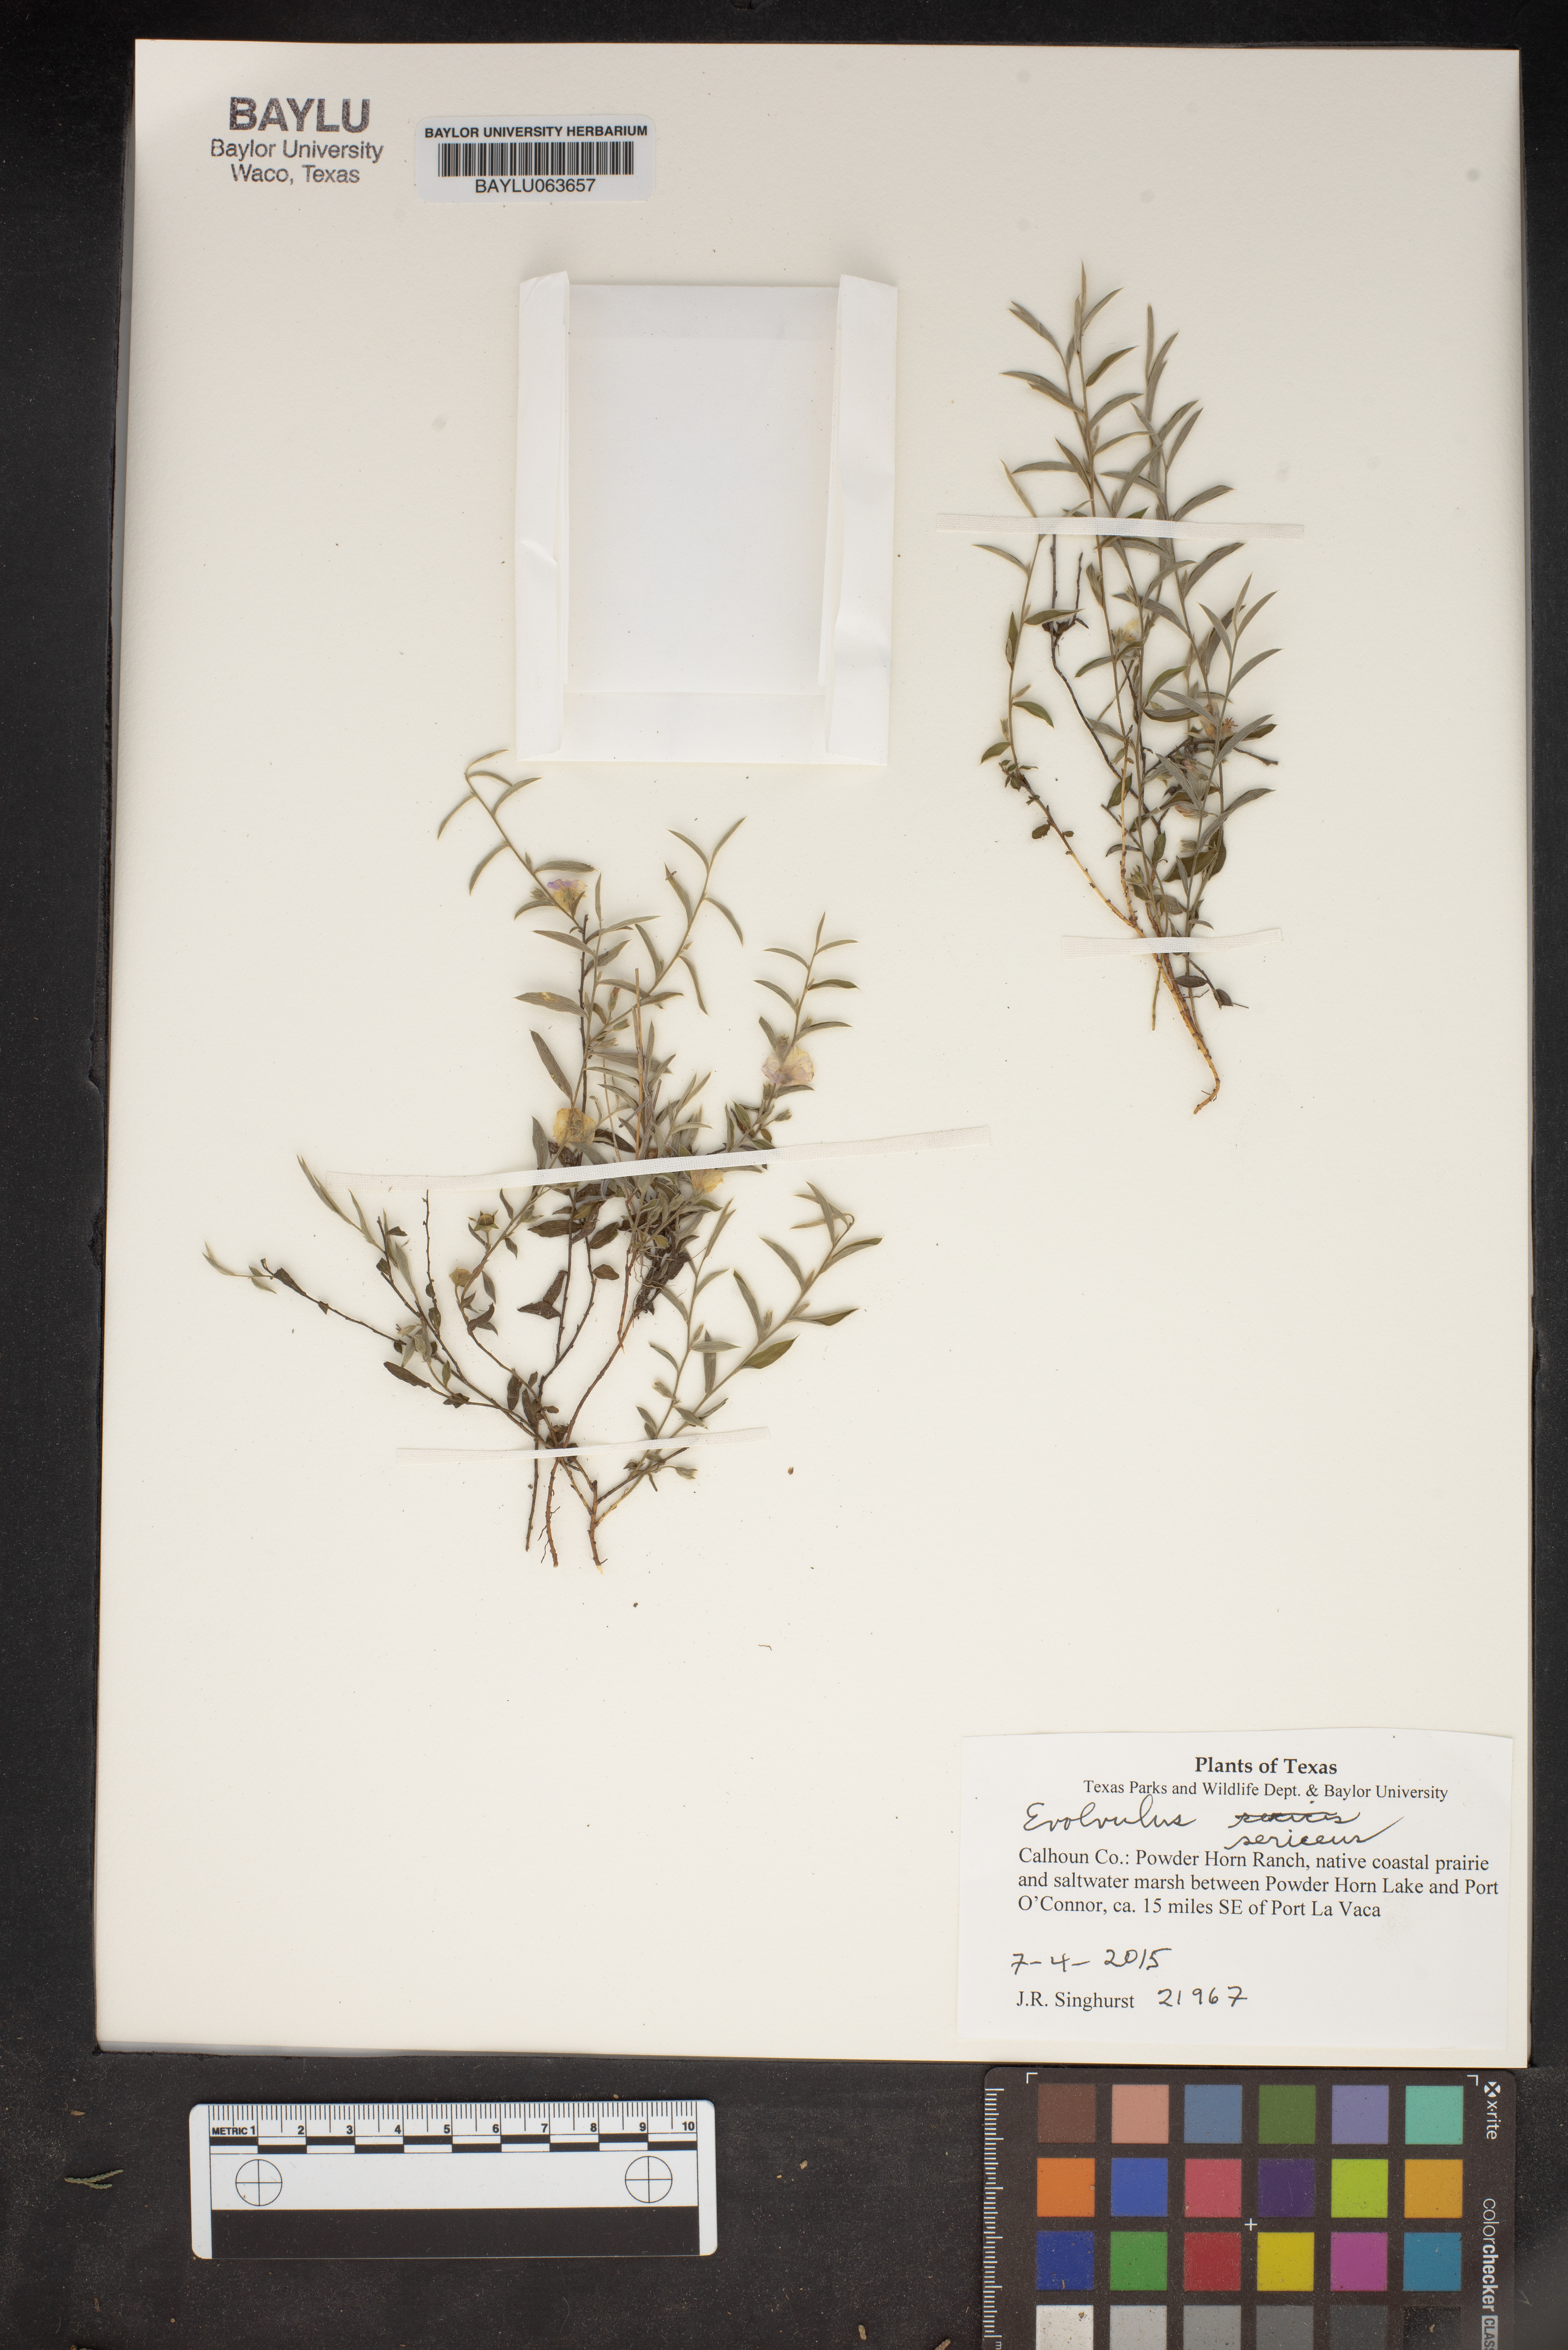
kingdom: Plantae
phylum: Tracheophyta
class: Magnoliopsida
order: Solanales
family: Convolvulaceae
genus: Evolvulus
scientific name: Evolvulus sericeus
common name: Blue dots
